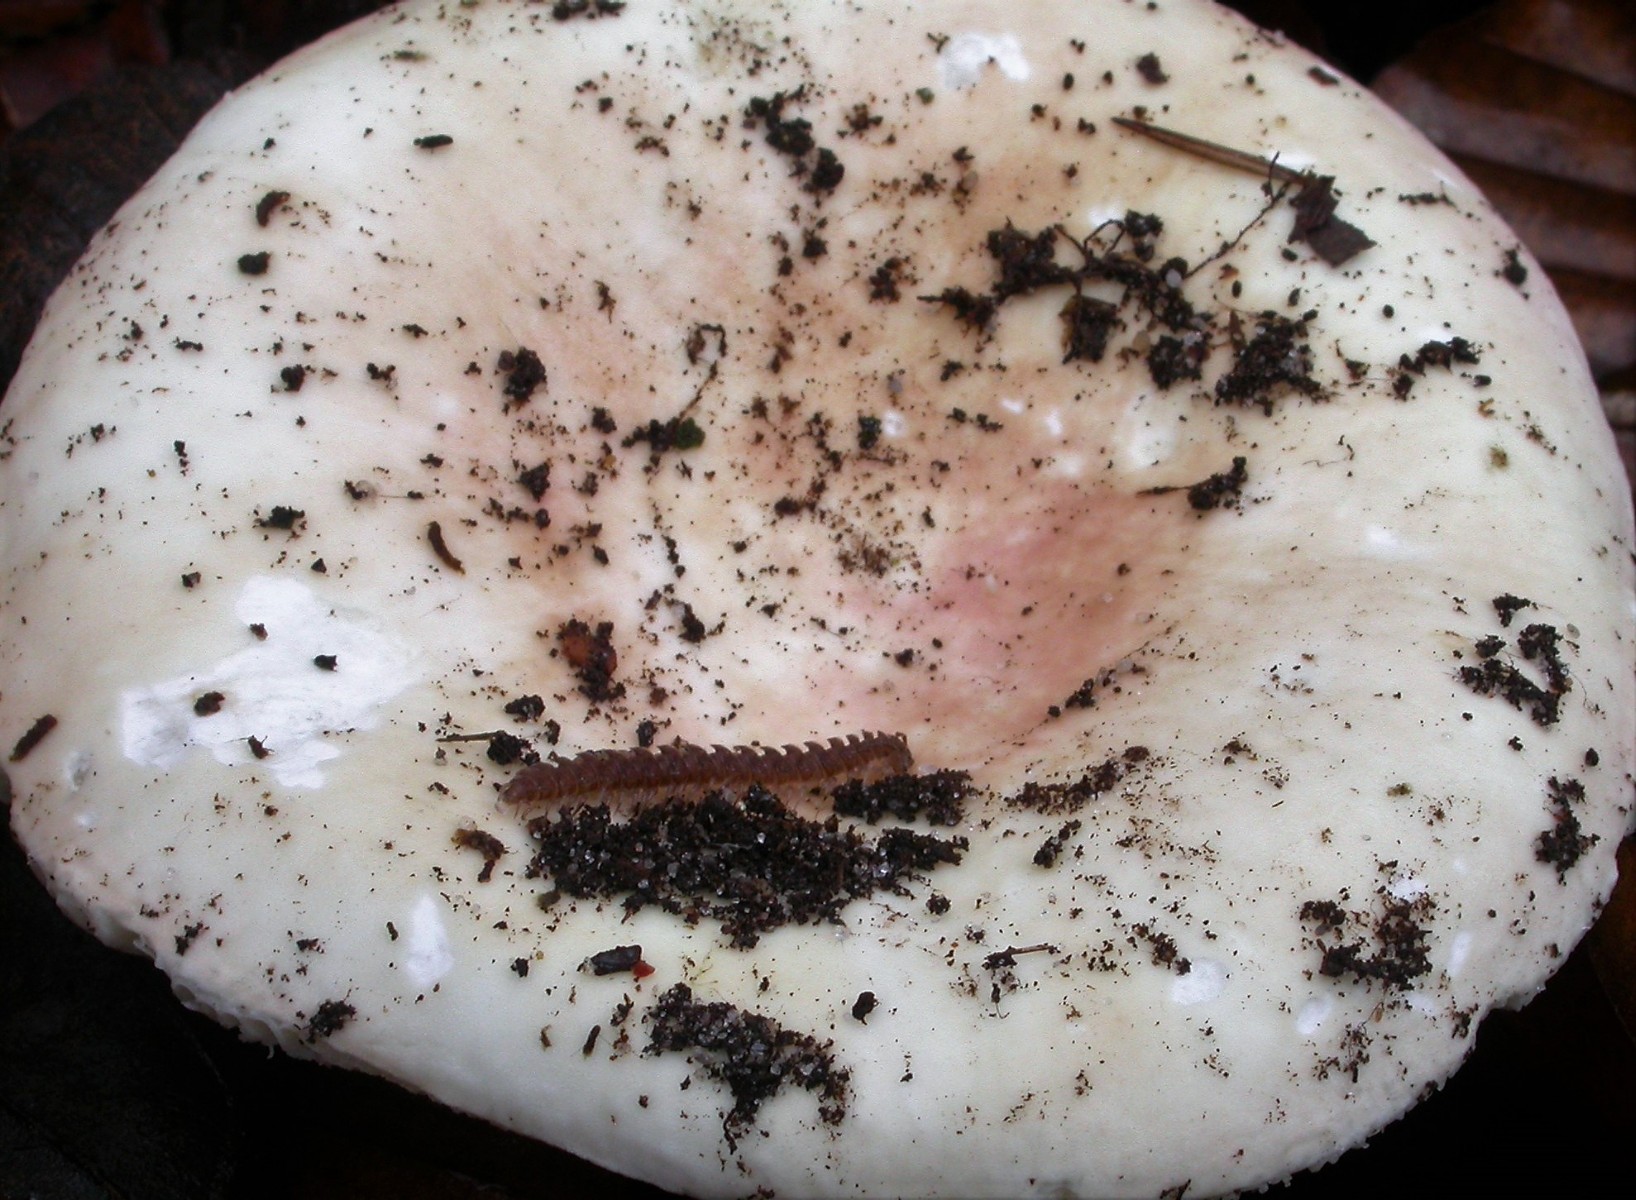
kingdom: Fungi
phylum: Basidiomycota
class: Agaricomycetes
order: Russulales
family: Russulaceae
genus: Russula
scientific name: Russula aurora
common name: rosa skørhat
